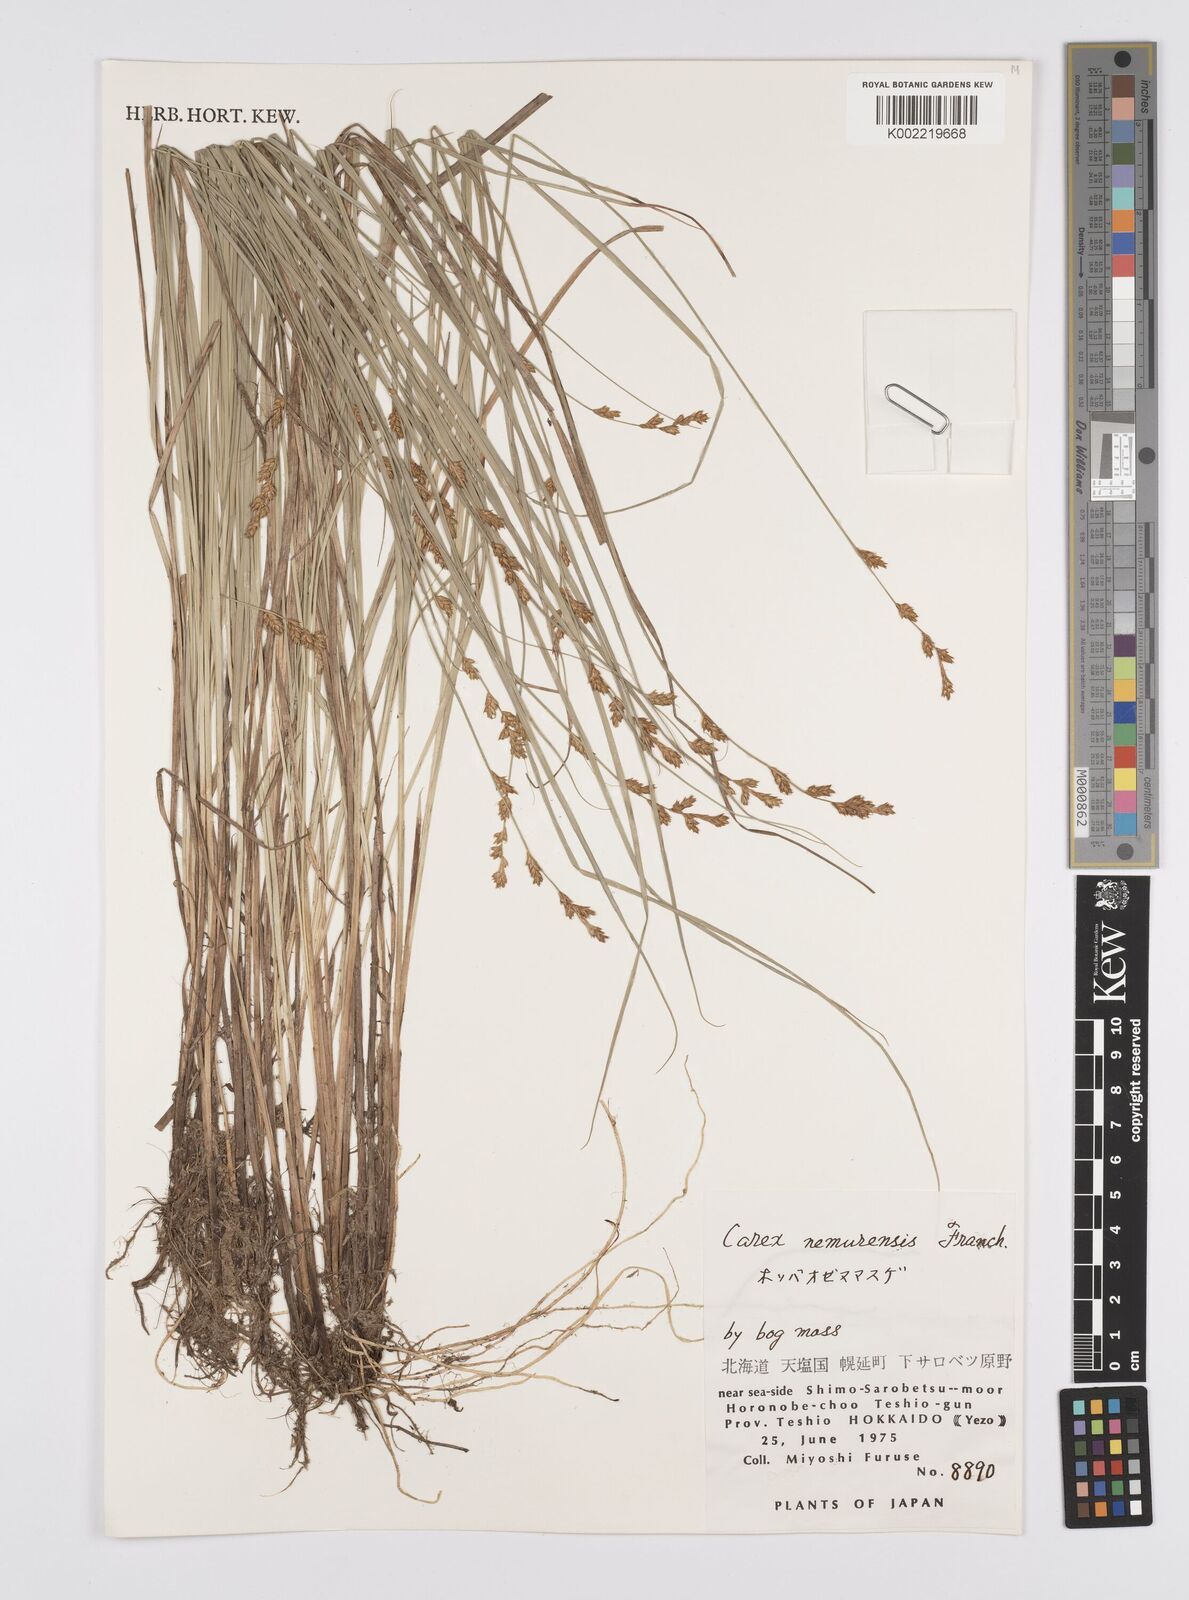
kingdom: Plantae
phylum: Tracheophyta
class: Liliopsida
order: Poales
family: Cyperaceae
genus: Carex
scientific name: Carex traiziscana
